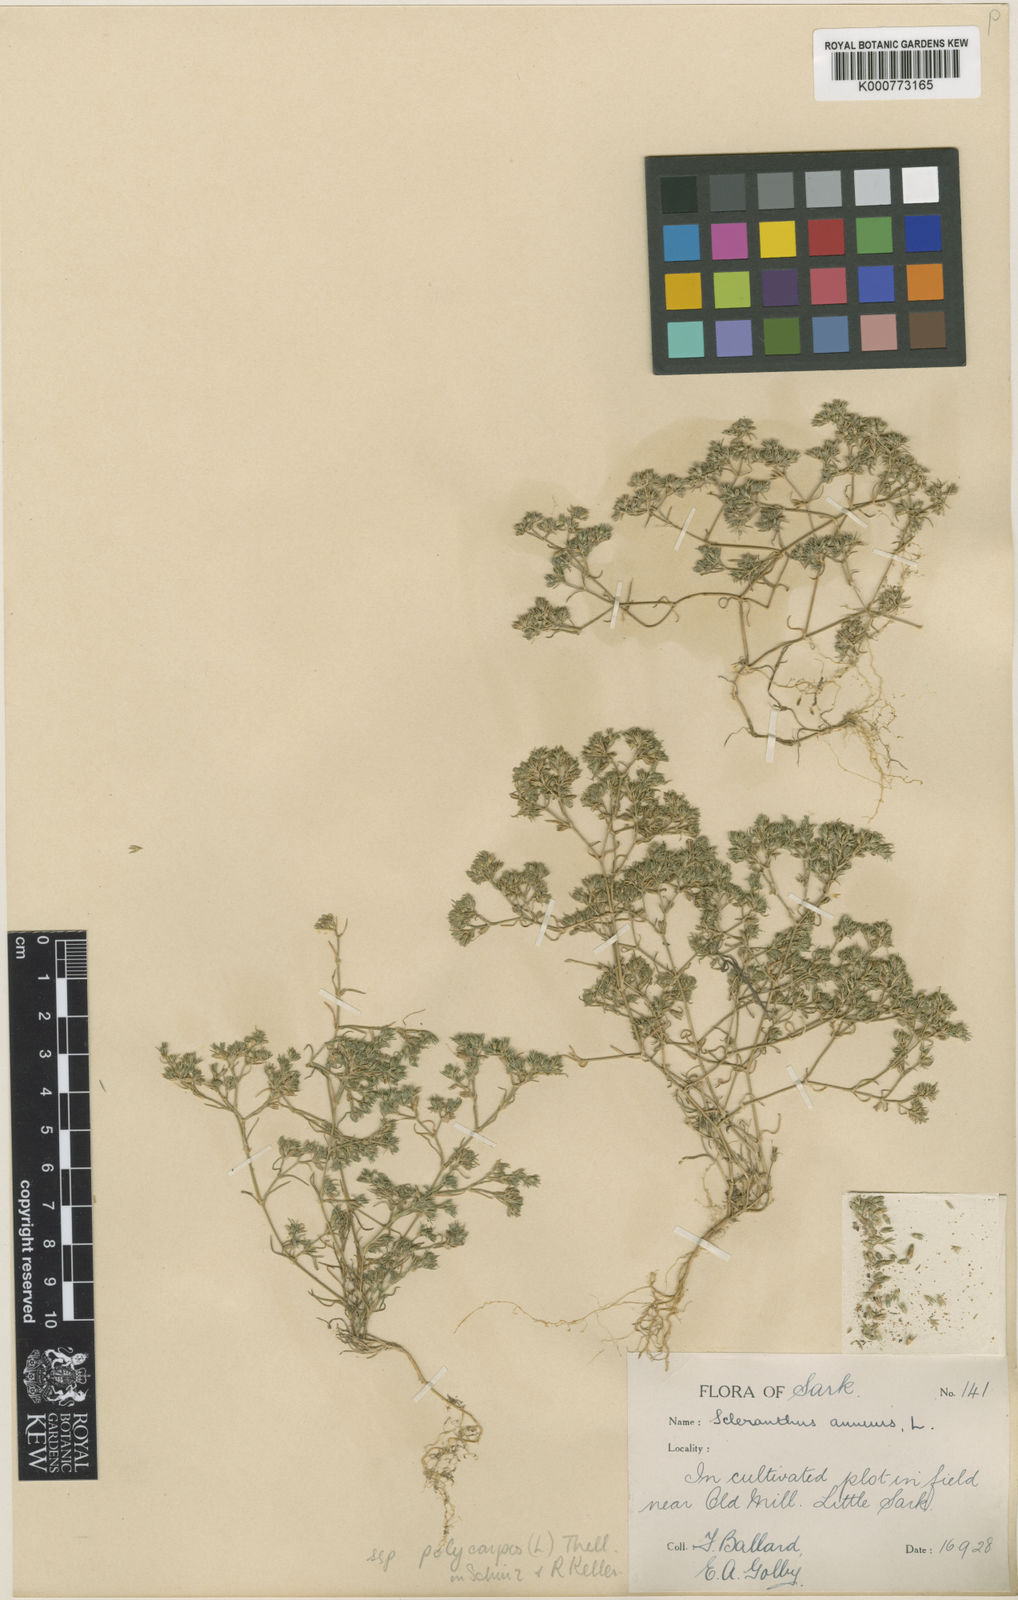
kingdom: Plantae
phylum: Tracheophyta
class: Magnoliopsida
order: Caryophyllales
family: Caryophyllaceae
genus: Scleranthus
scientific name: Scleranthus annuus
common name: Annual knawel
